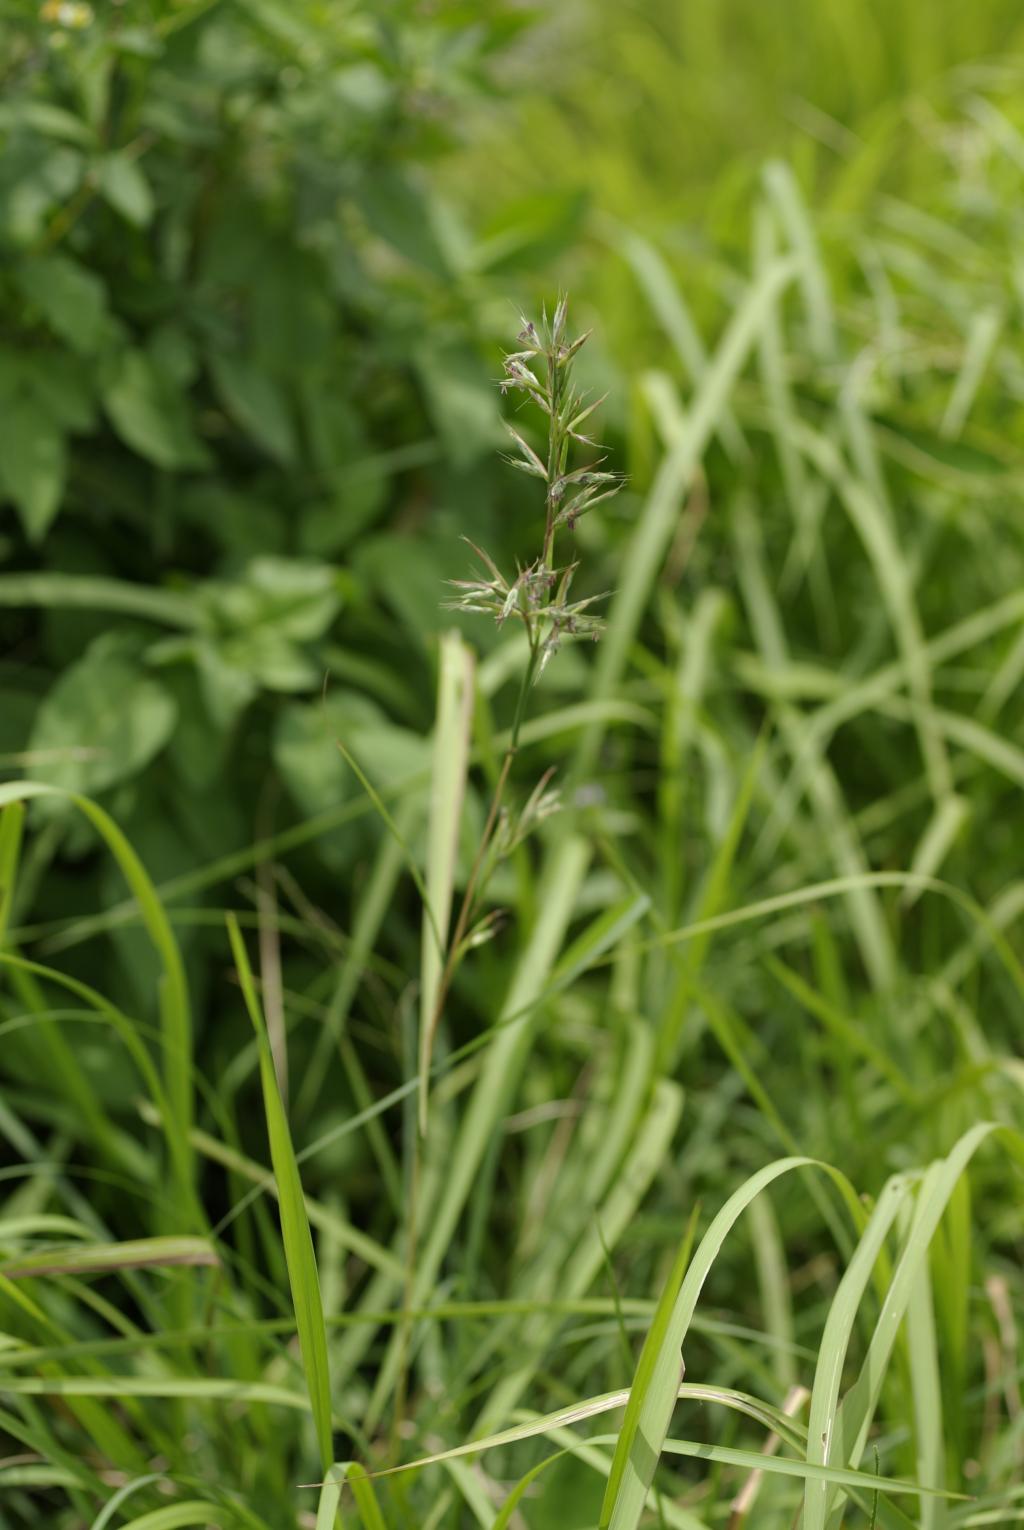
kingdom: Plantae
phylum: Tracheophyta
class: Liliopsida
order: Poales
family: Poaceae
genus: Cymbopogon
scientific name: Cymbopogon tortilis
